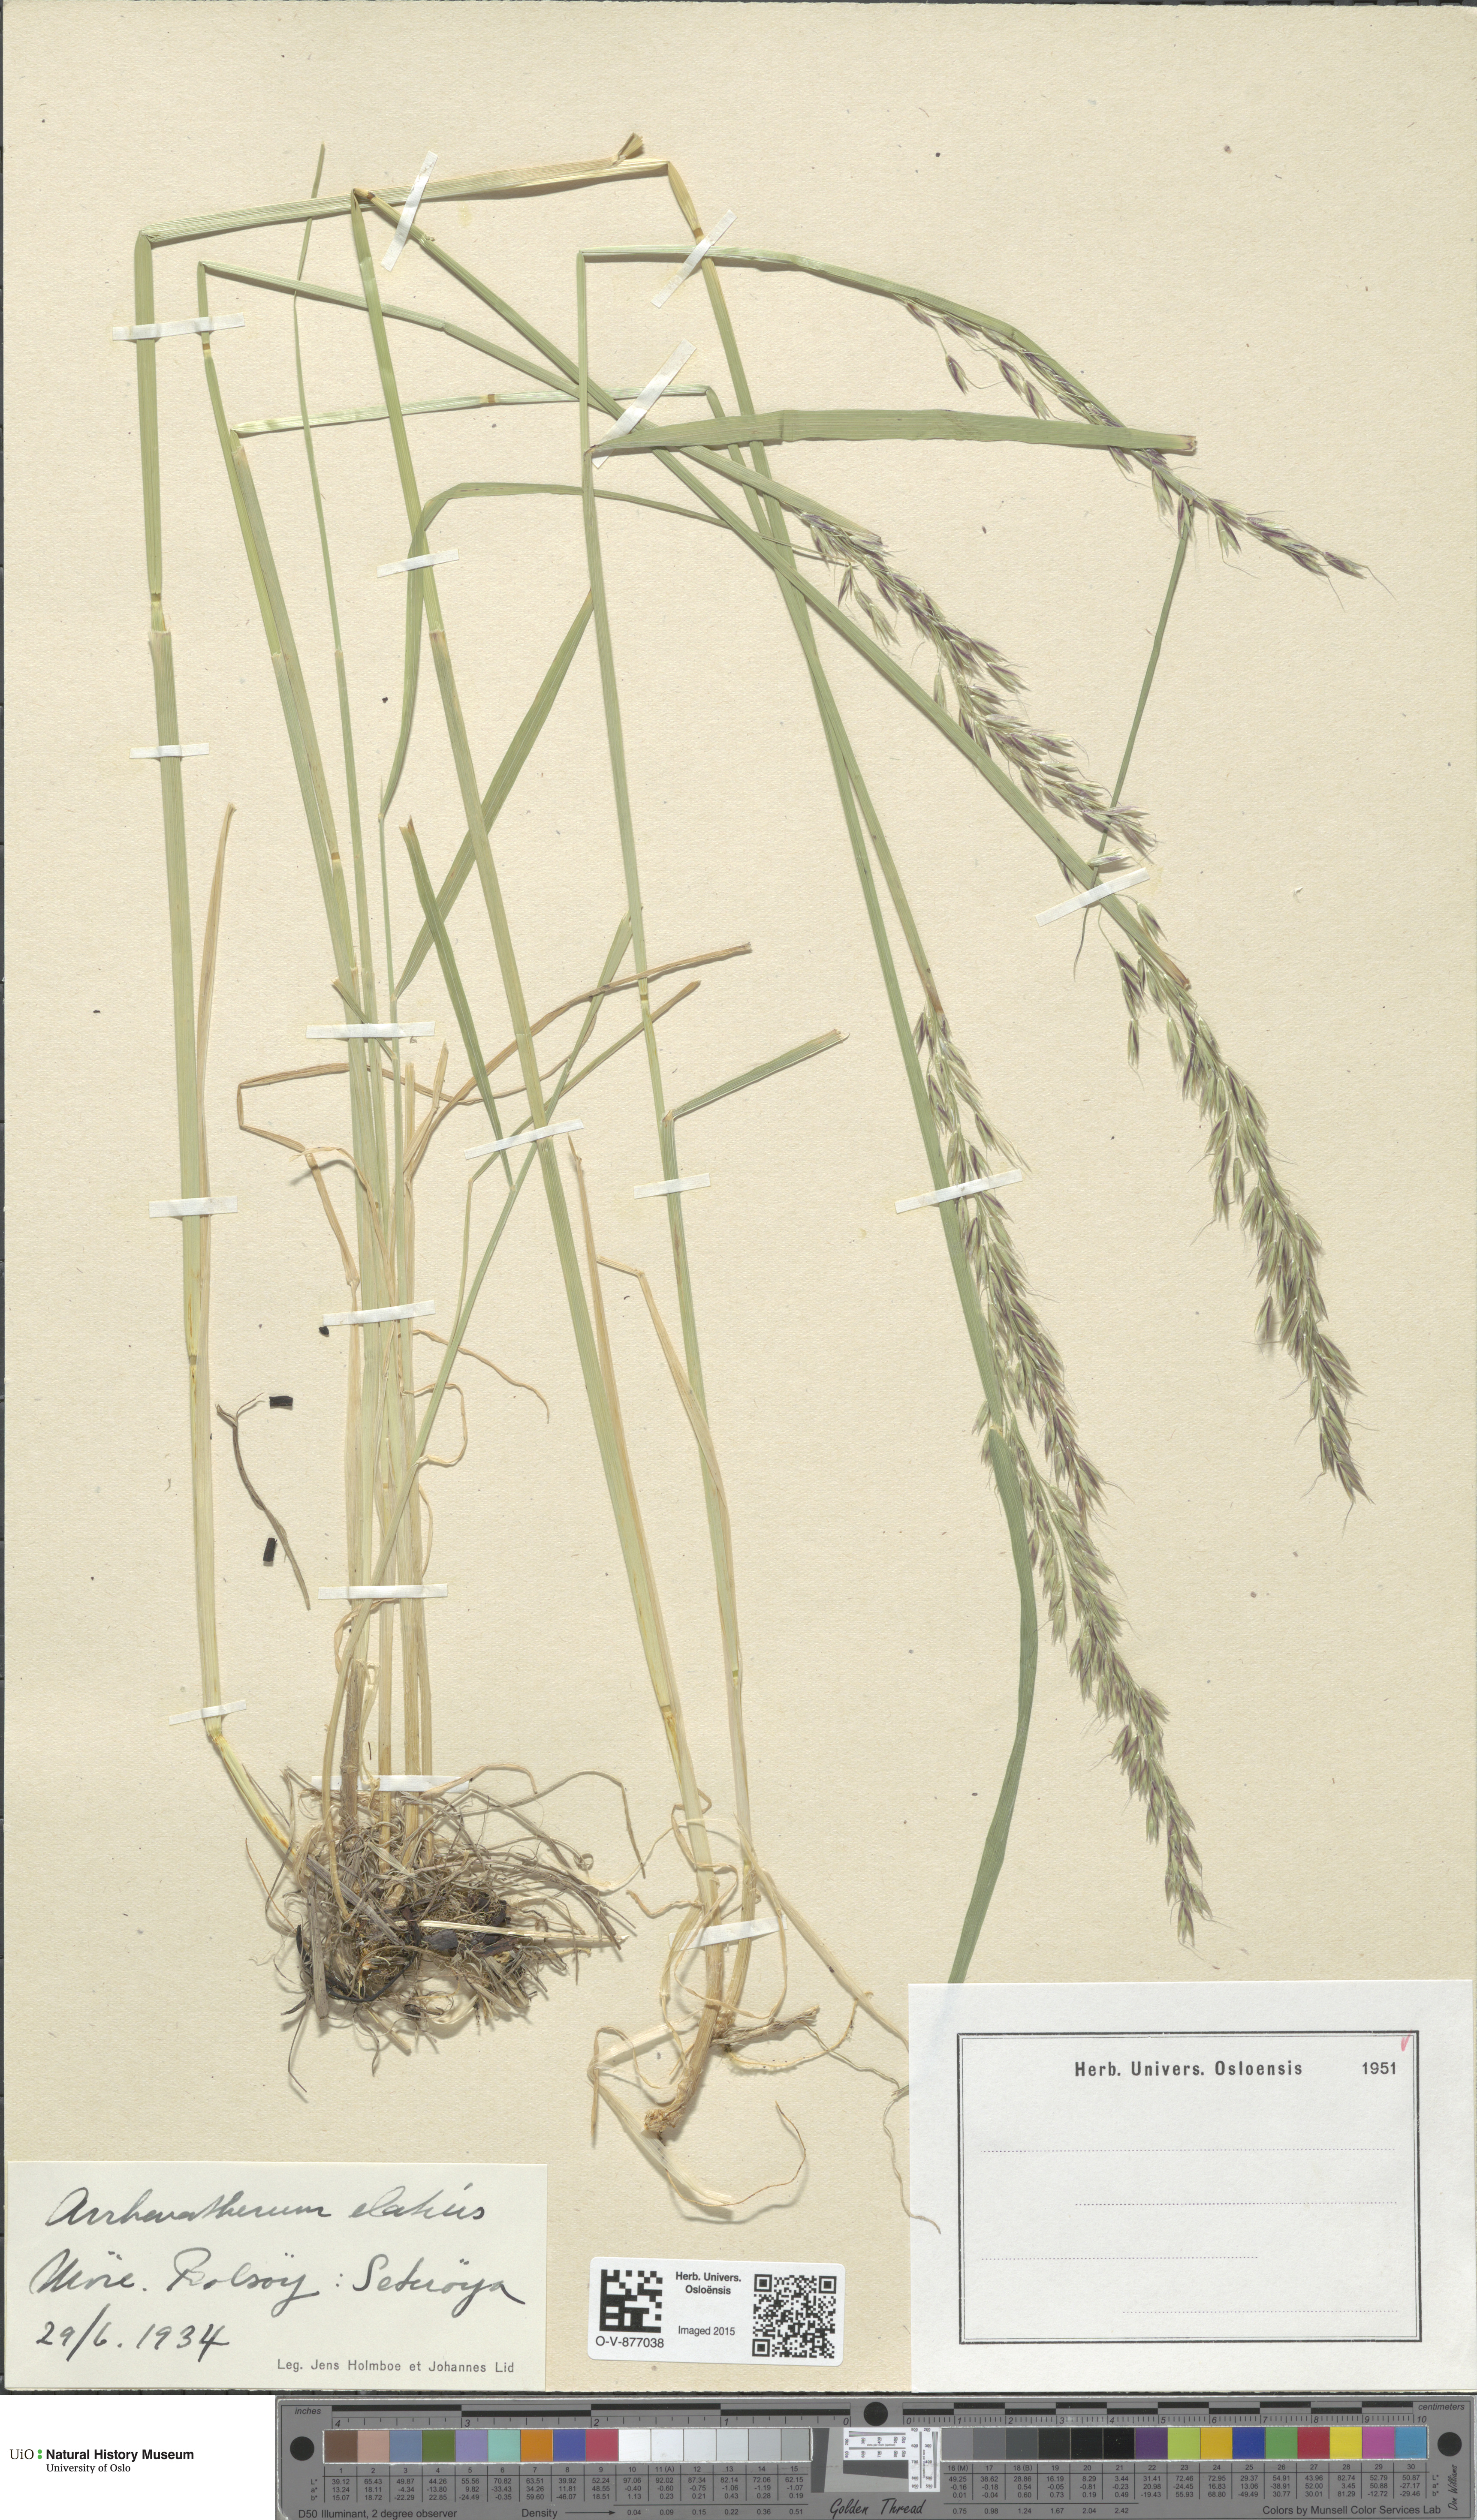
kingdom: Plantae
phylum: Tracheophyta
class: Liliopsida
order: Poales
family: Poaceae
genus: Arrhenatherum
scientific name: Arrhenatherum elatius
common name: Tall oatgrass
